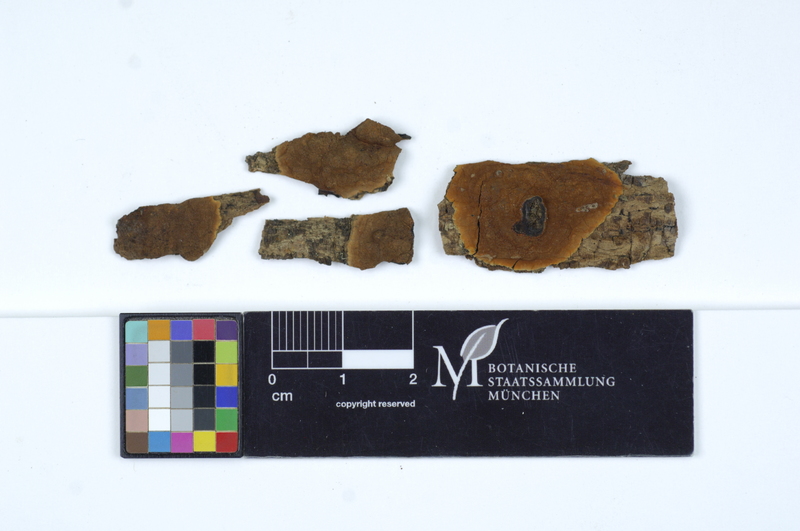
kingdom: Plantae
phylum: Tracheophyta
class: Magnoliopsida
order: Lamiales
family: Oleaceae
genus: Fraxinus
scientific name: Fraxinus
